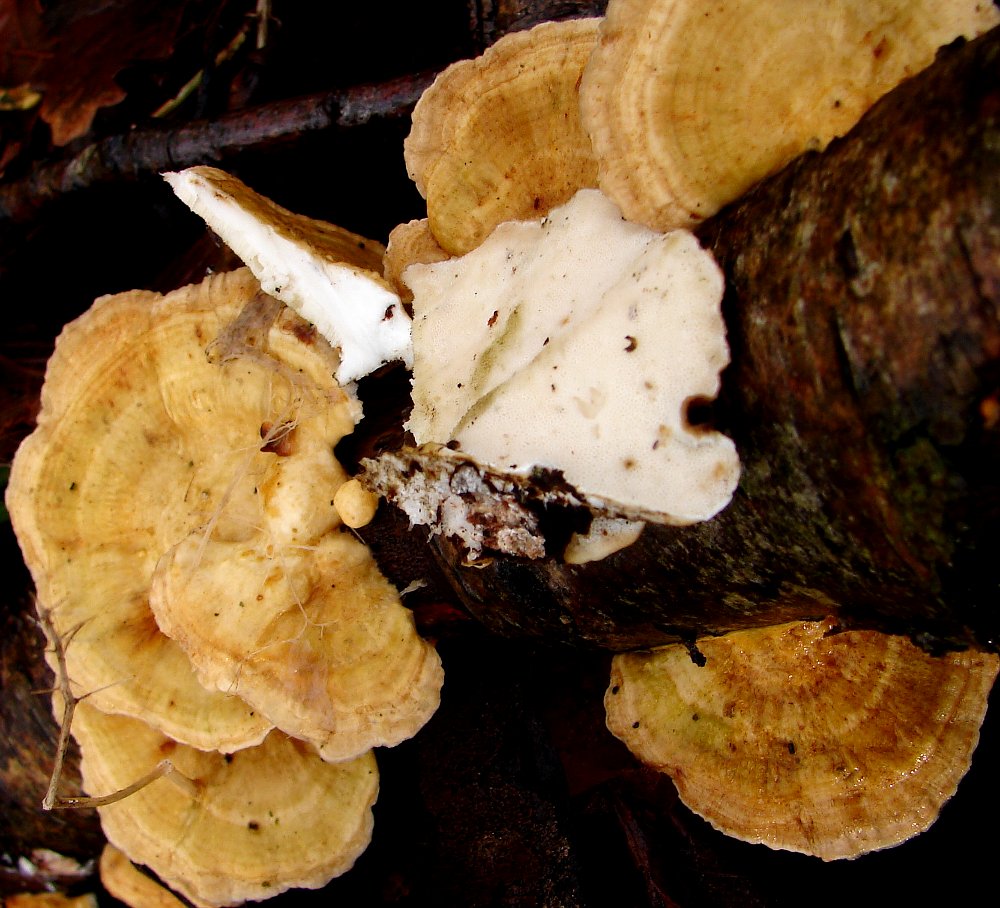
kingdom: Fungi
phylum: Basidiomycota
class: Agaricomycetes
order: Polyporales
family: Polyporaceae
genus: Trametes
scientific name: Trametes ochracea
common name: bæltet læderporesvamp
